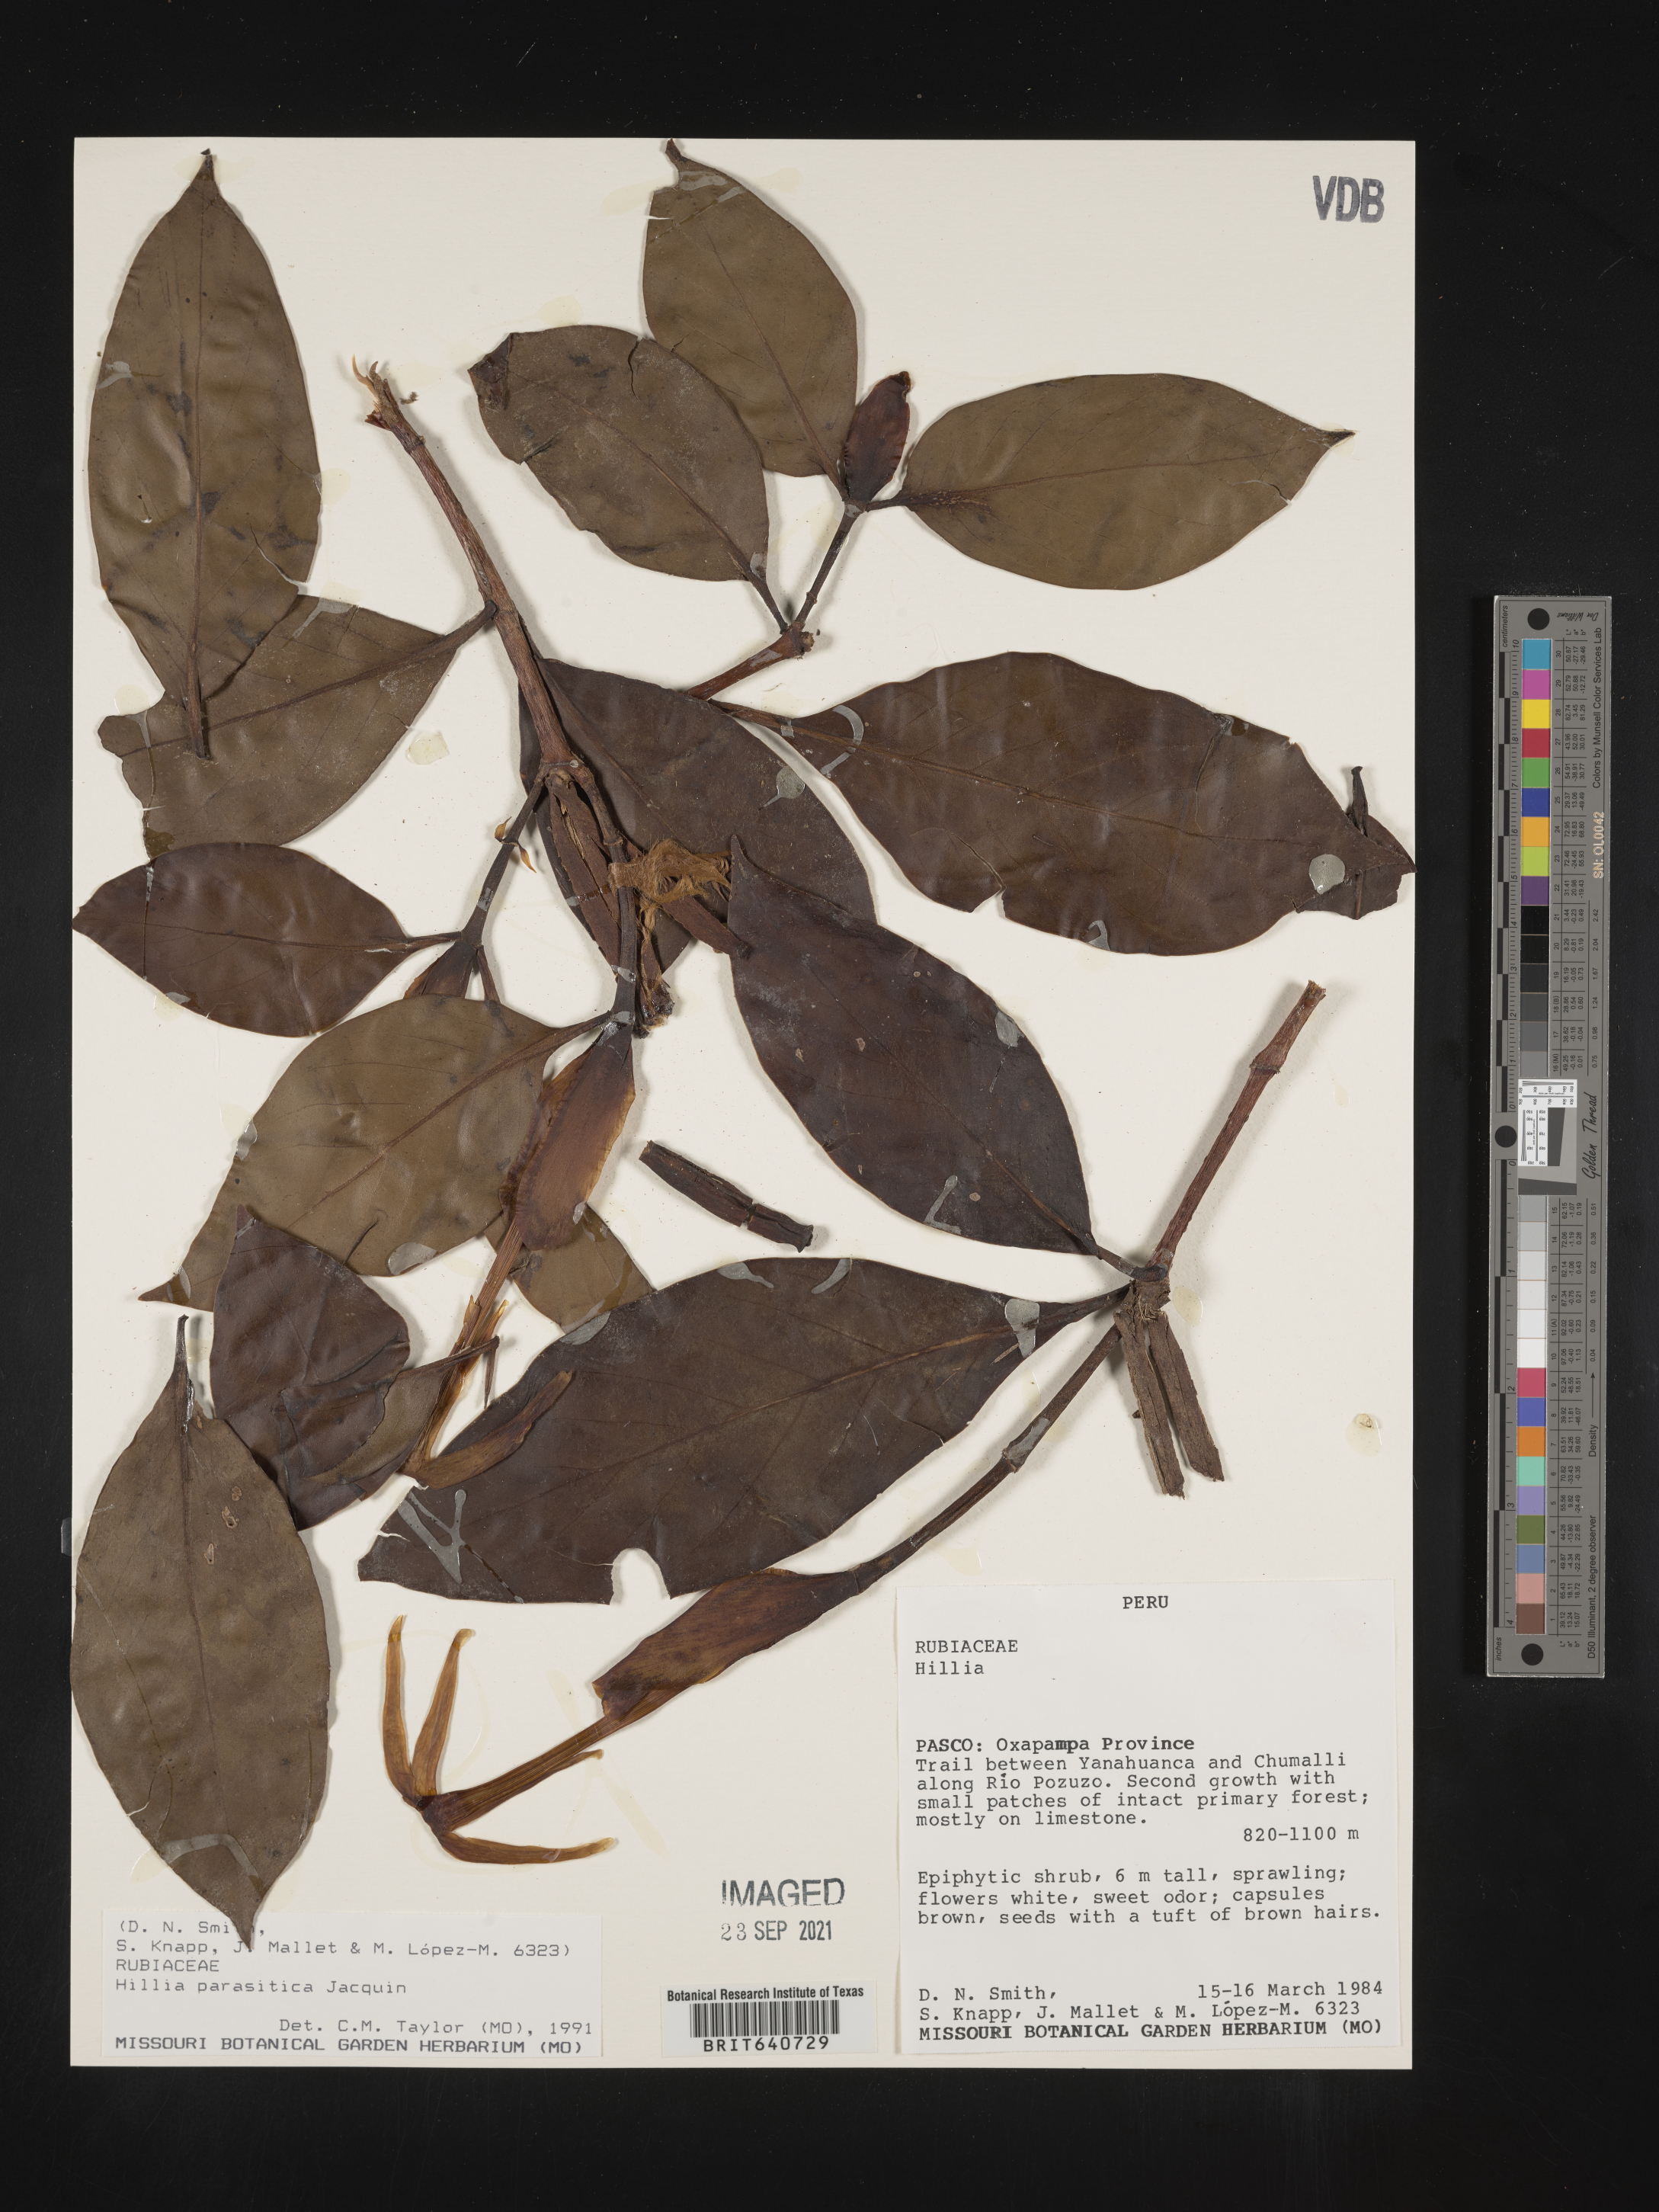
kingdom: Plantae
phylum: Tracheophyta
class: Magnoliopsida
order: Gentianales
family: Rubiaceae
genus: Hillia
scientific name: Hillia
